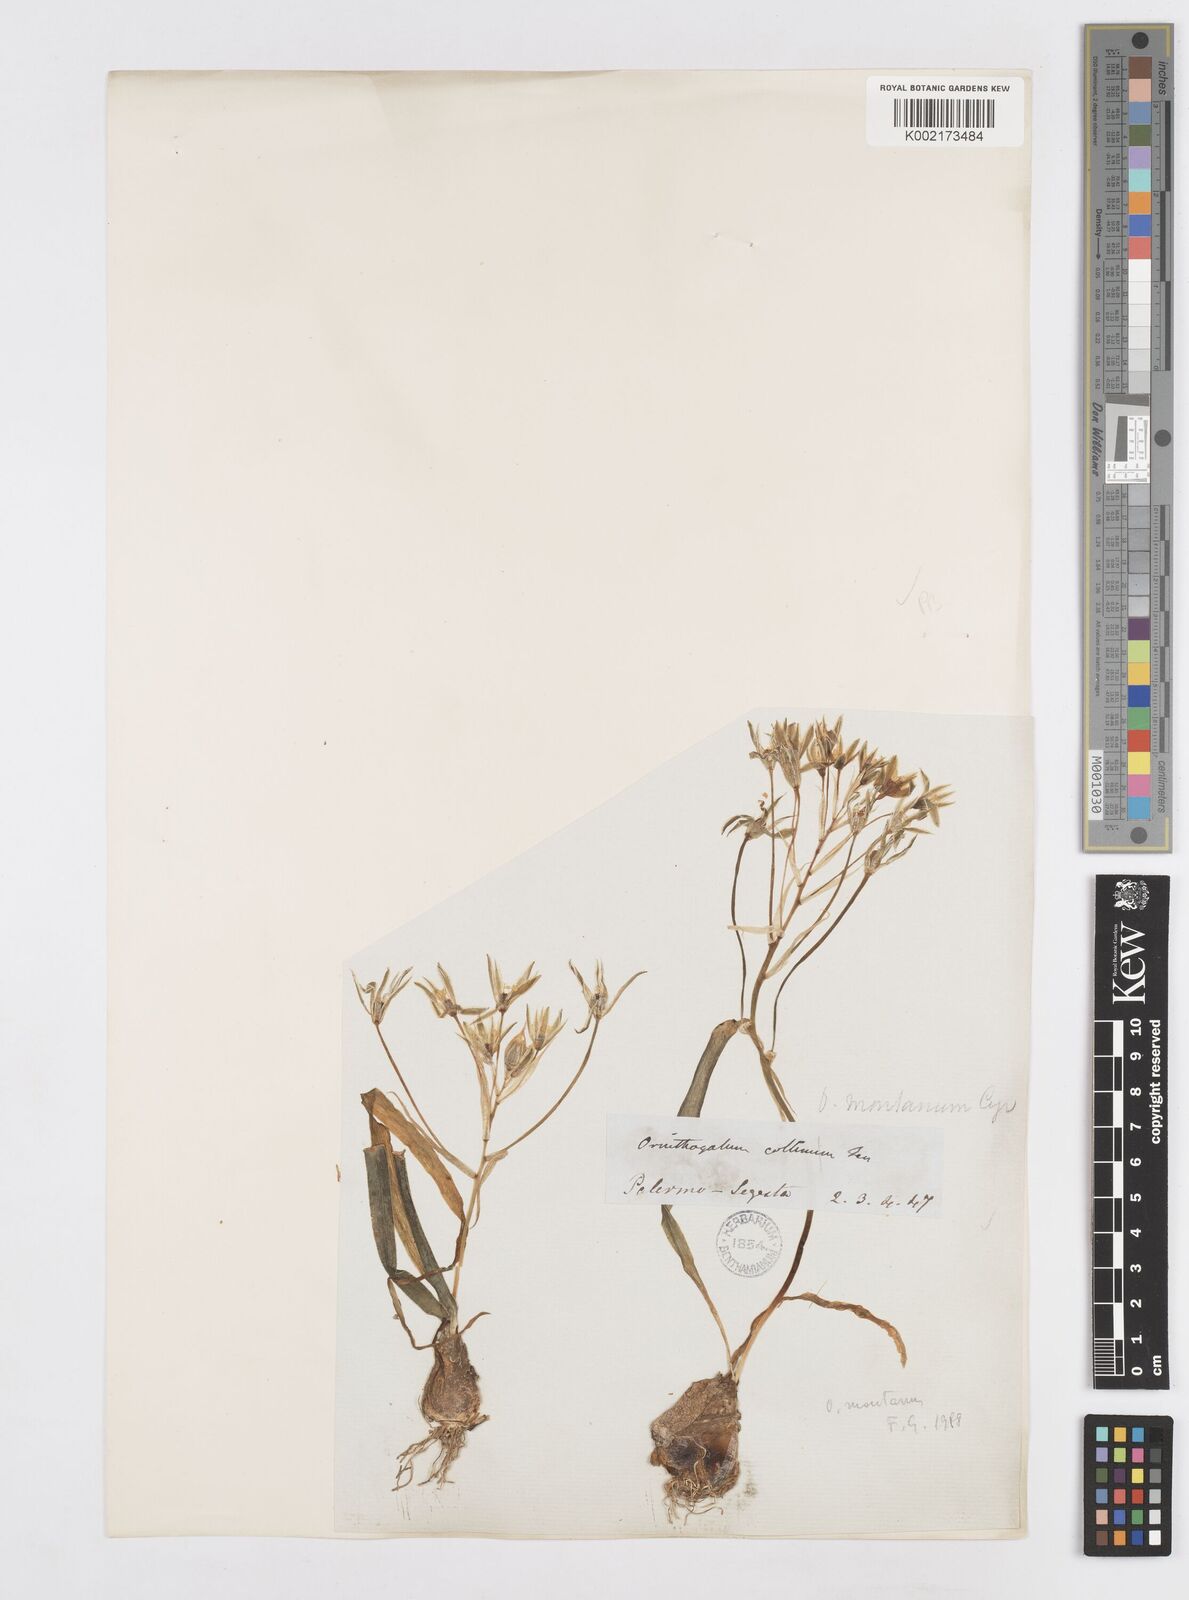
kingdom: Plantae
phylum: Tracheophyta
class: Liliopsida
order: Asparagales
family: Asparagaceae
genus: Ornithogalum
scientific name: Ornithogalum montanum
